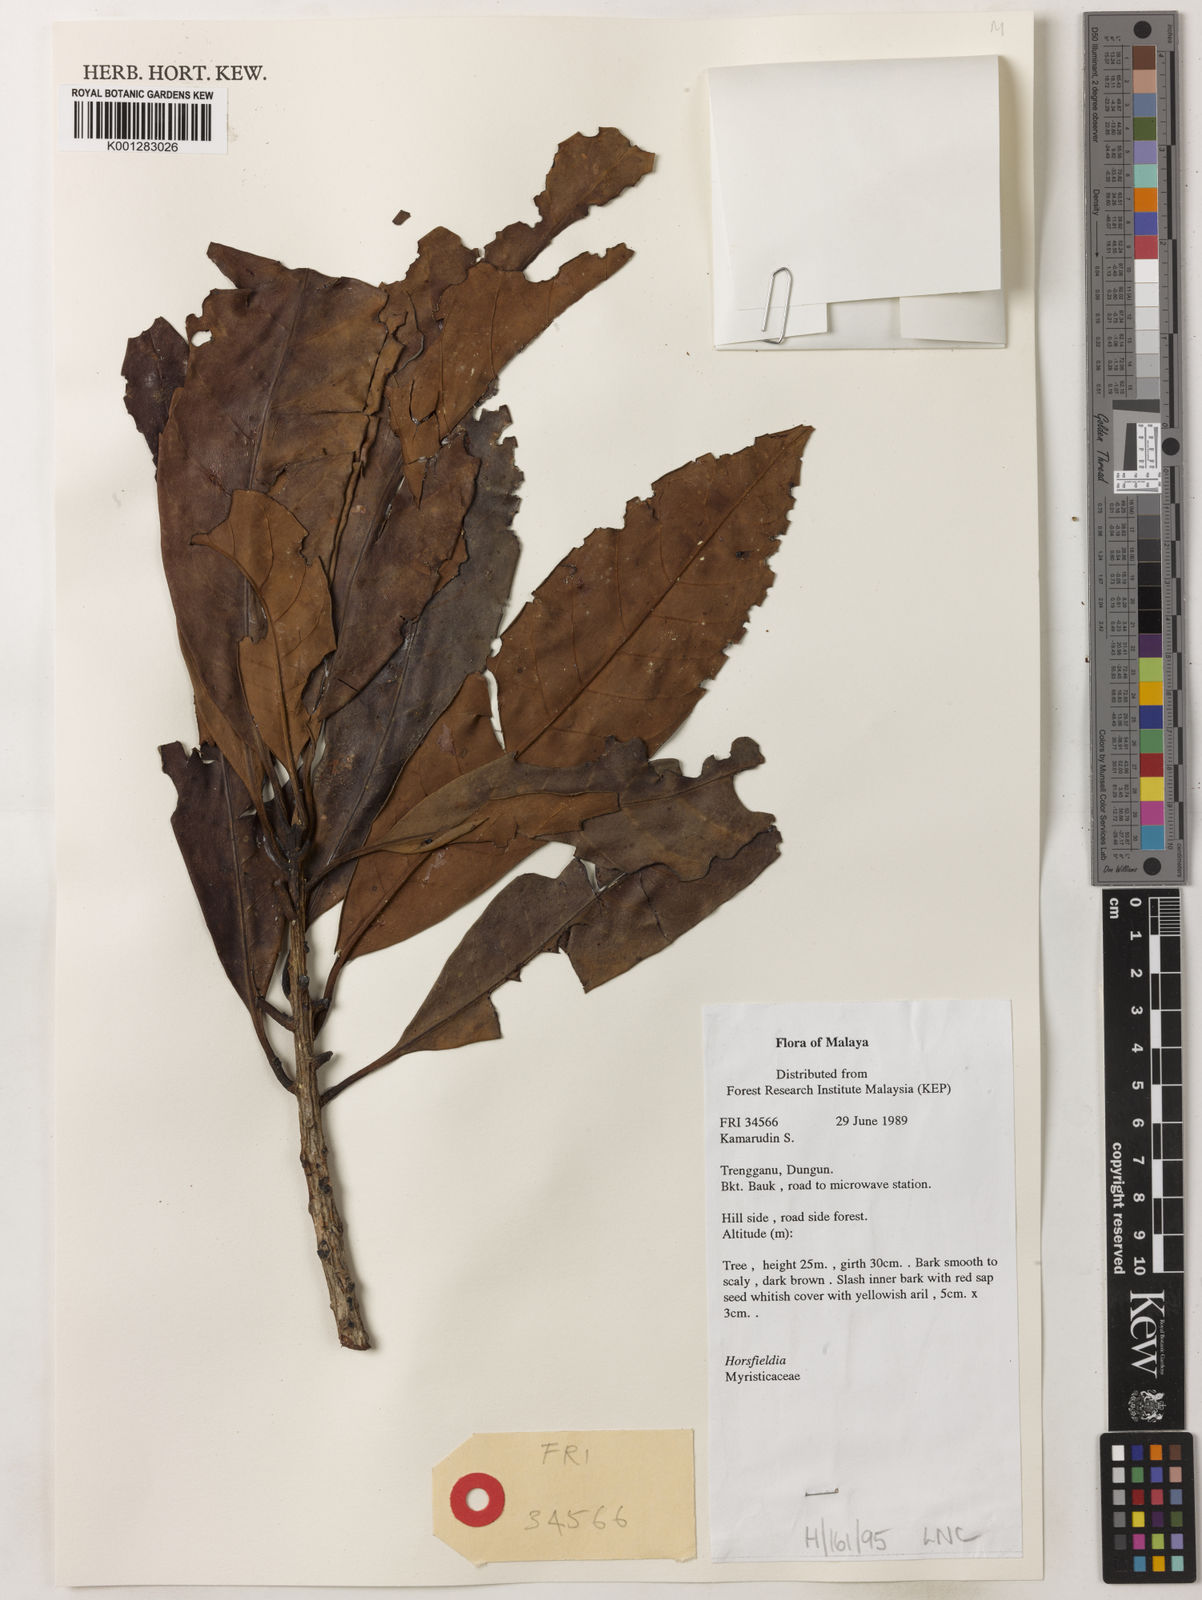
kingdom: Plantae
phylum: Tracheophyta
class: Magnoliopsida
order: Magnoliales
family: Myristicaceae
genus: Horsfieldia
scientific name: Horsfieldia
